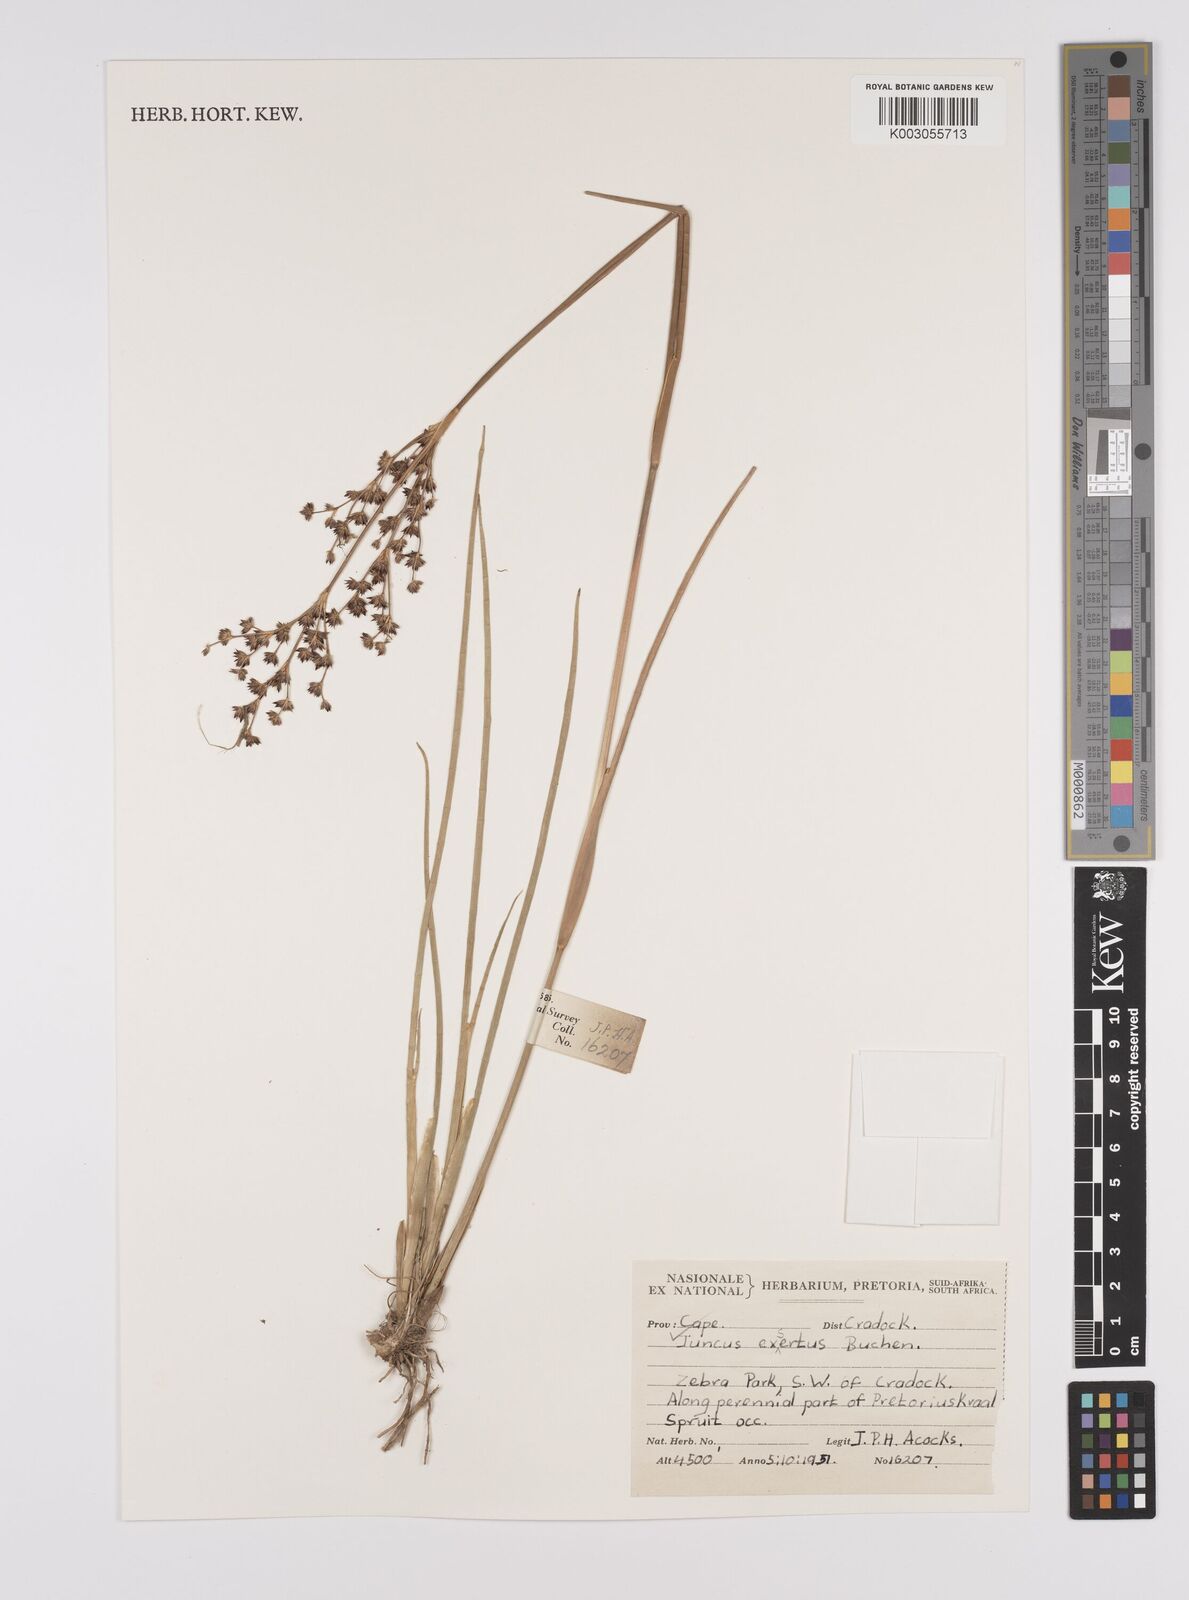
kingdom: Plantae
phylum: Tracheophyta
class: Liliopsida
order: Poales
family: Juncaceae
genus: Juncus
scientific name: Juncus oxycarpus
